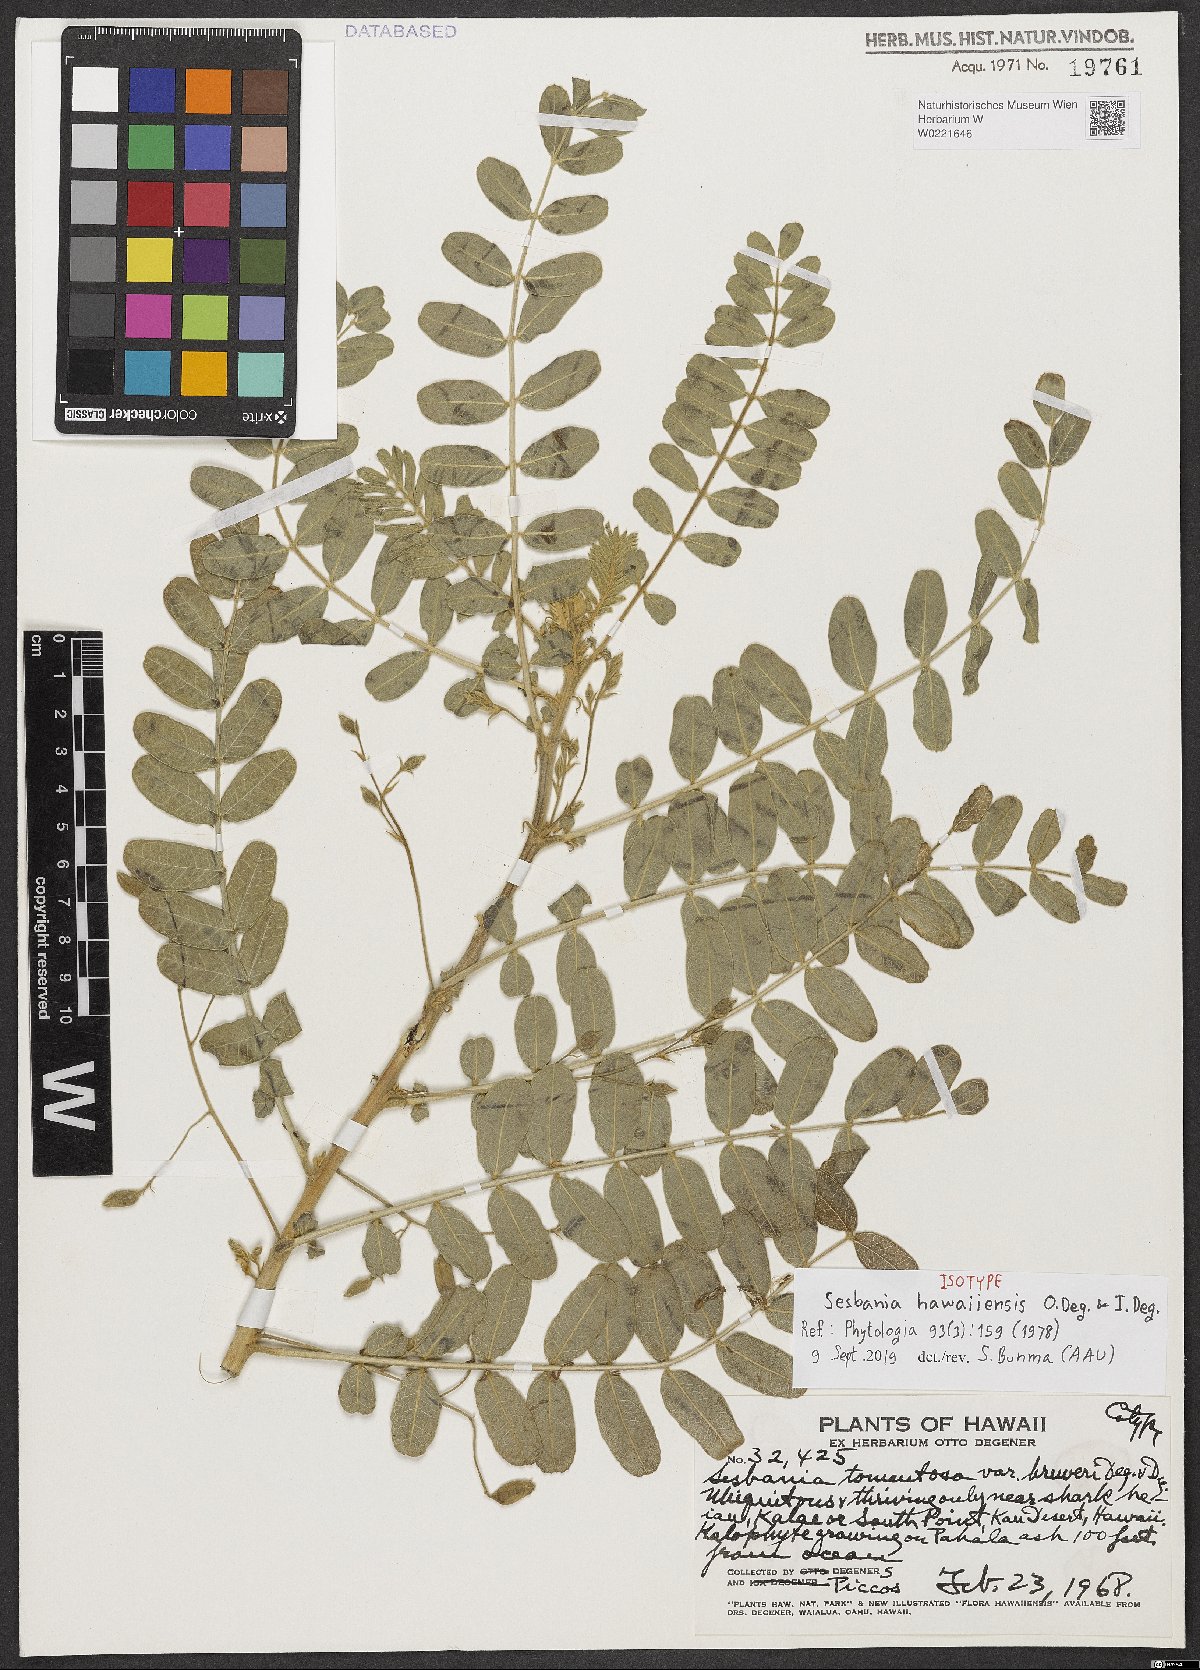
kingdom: Plantae
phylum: Tracheophyta
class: Magnoliopsida
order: Fabales
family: Fabaceae
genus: Sesbania
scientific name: Sesbania tomentosa
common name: `ohai
